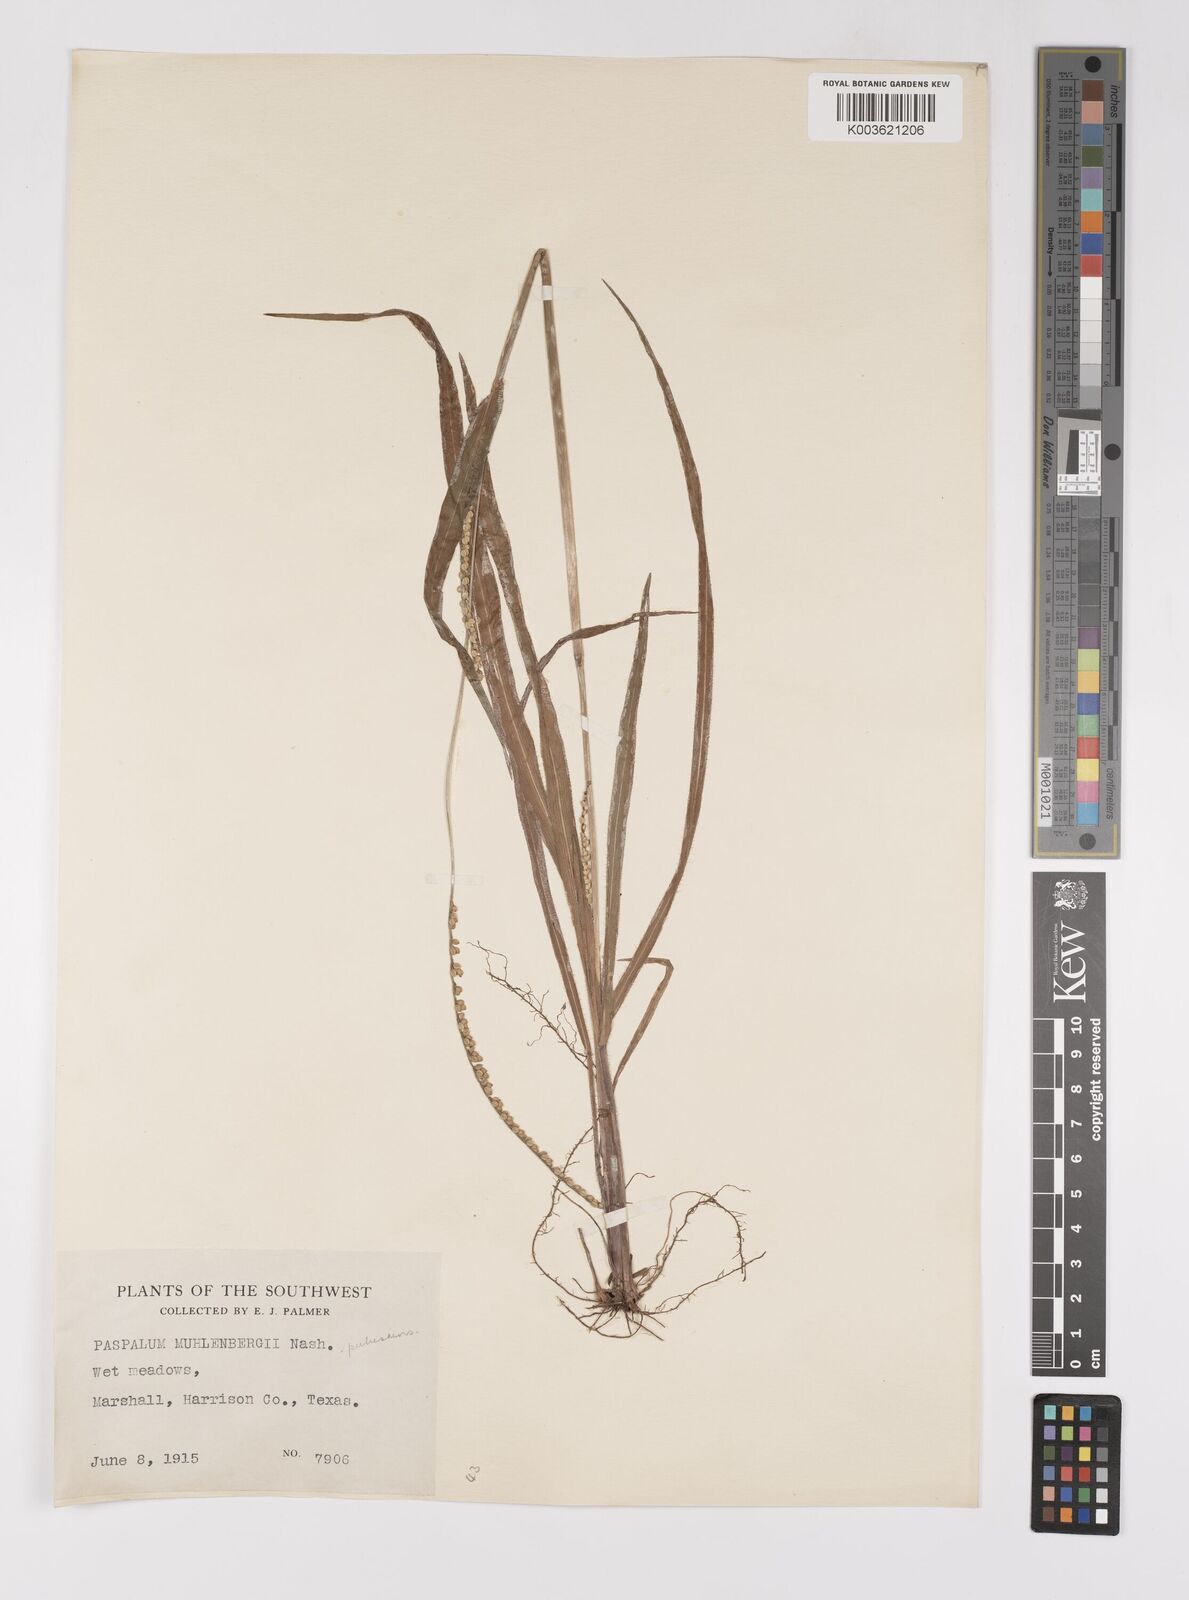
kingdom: Plantae
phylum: Tracheophyta
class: Liliopsida
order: Poales
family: Poaceae
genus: Paspalum
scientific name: Paspalum setaceum
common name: Slender paspalum
